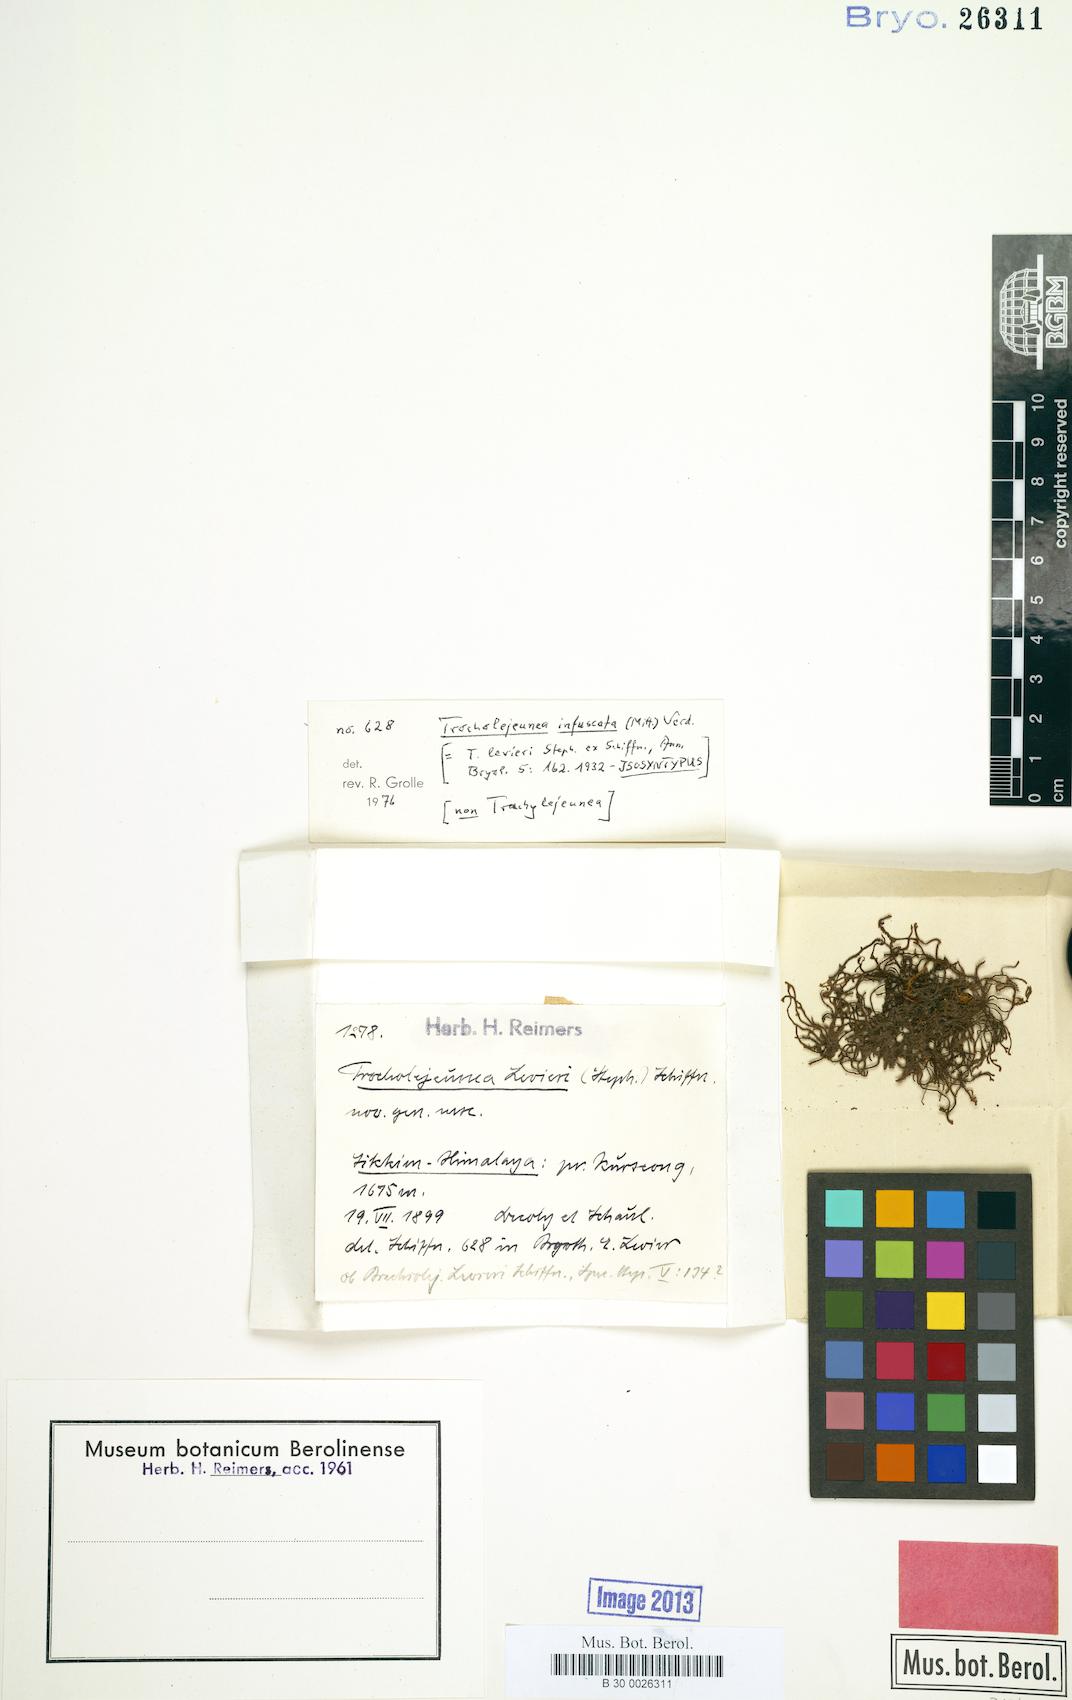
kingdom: Plantae
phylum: Marchantiophyta
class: Jungermanniopsida
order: Porellales
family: Lejeuneaceae
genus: Acrolejeunea
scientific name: Acrolejeunea infuscata
